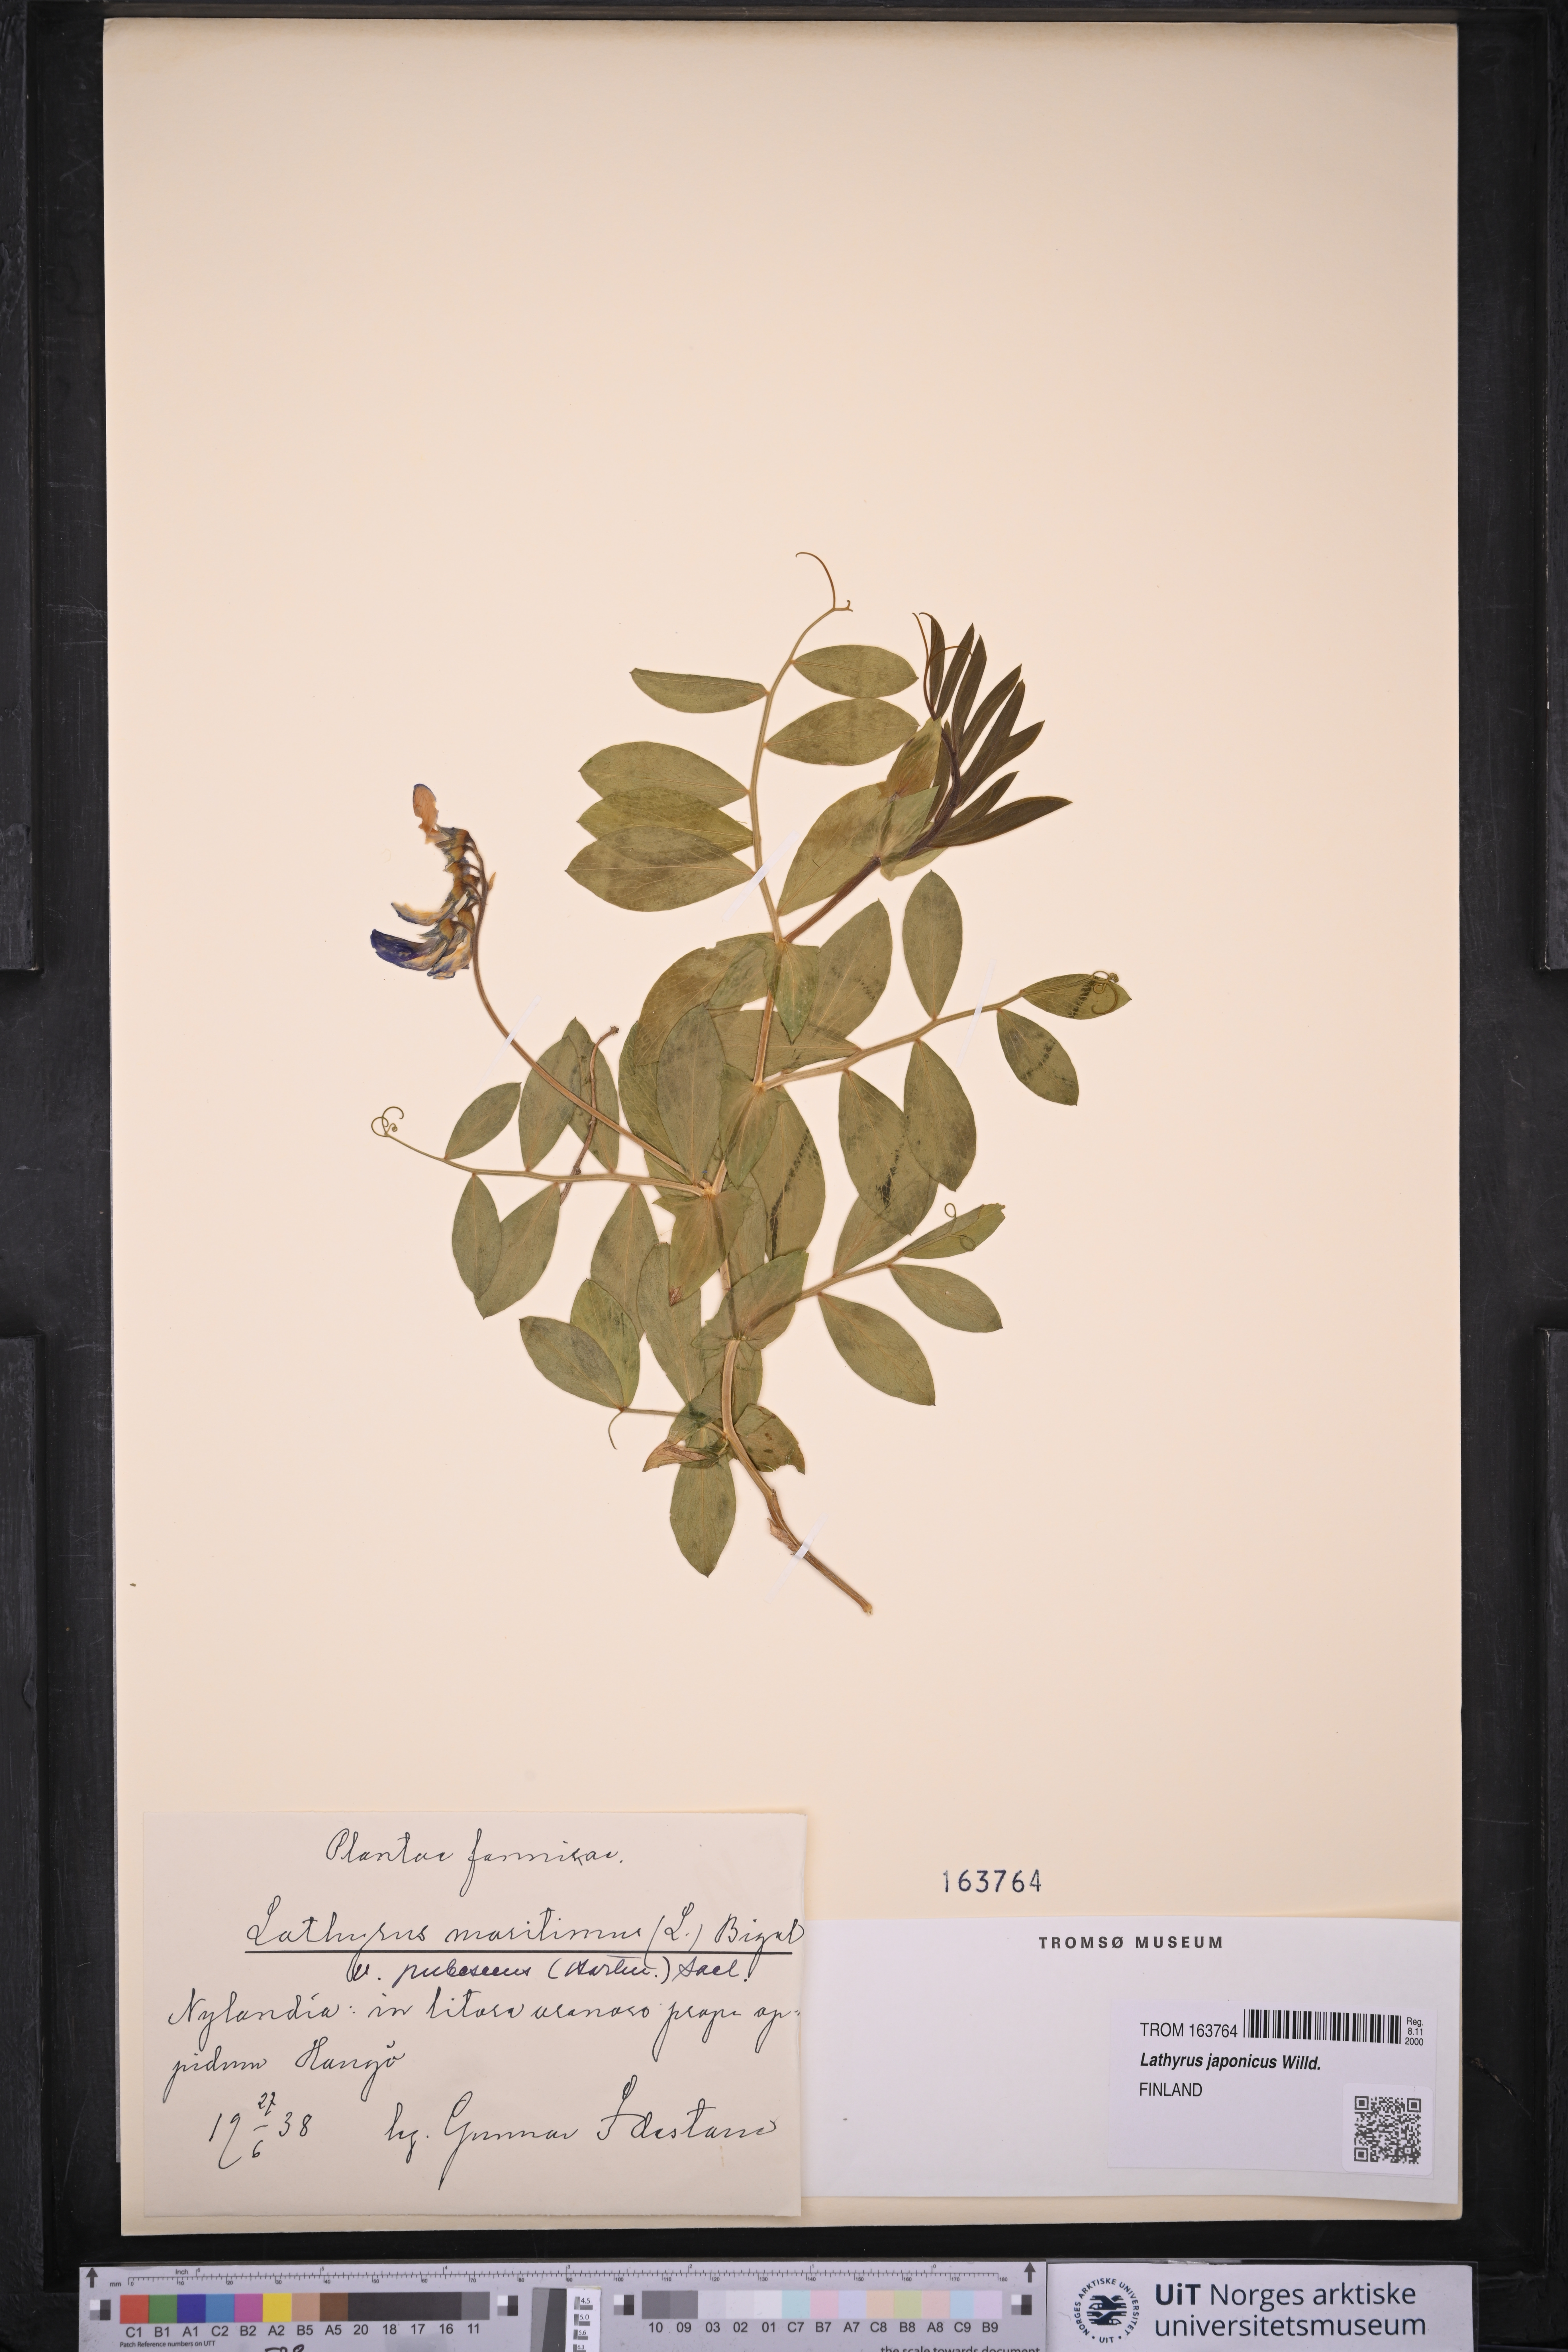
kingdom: Plantae
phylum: Tracheophyta
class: Magnoliopsida
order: Fabales
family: Fabaceae
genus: Lathyrus
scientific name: Lathyrus japonicus
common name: Sea pea
